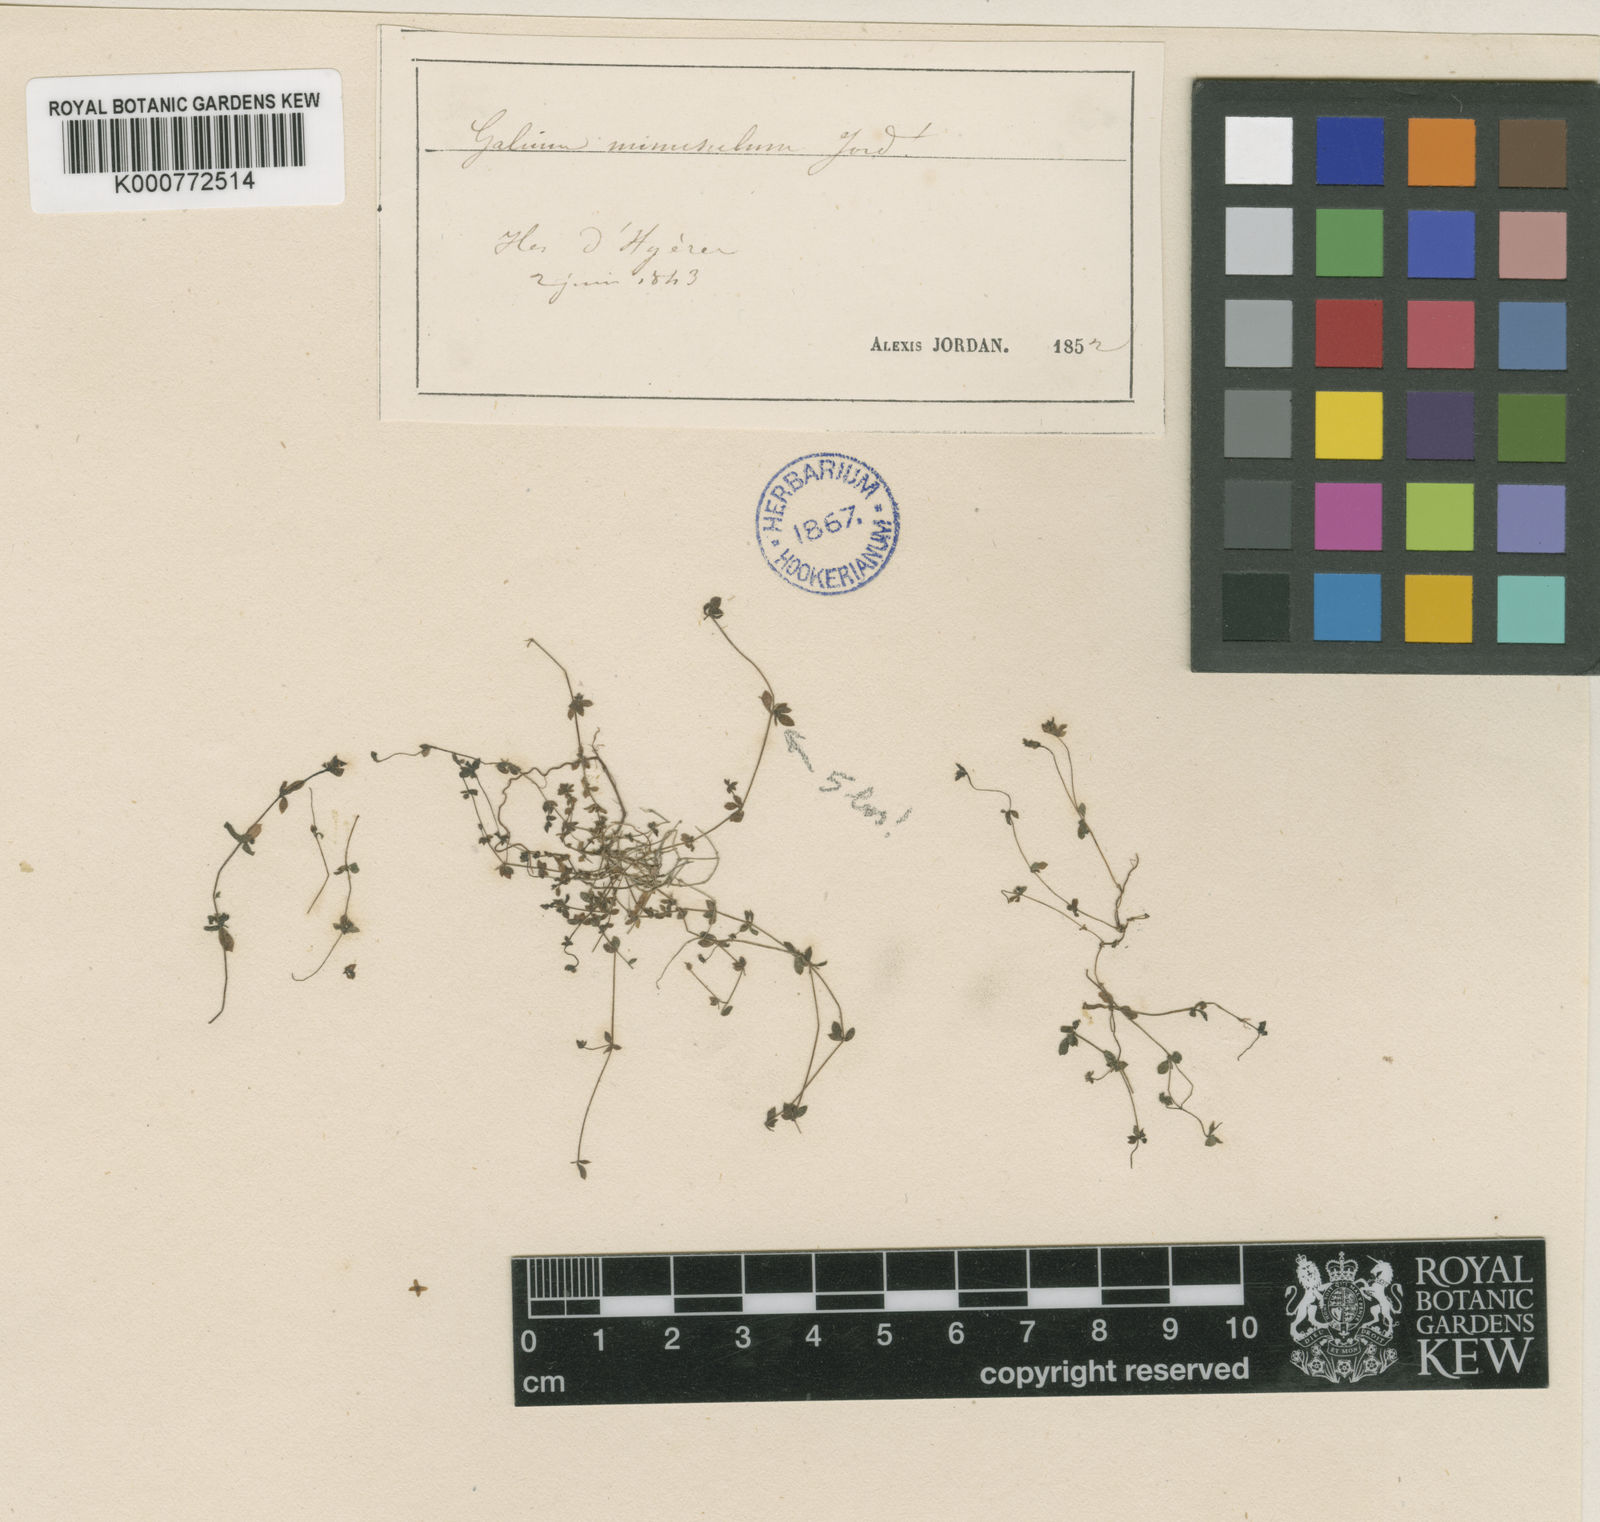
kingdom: Plantae
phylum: Tracheophyta
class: Magnoliopsida
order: Gentianales
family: Rubiaceae
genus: Galium
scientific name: Galium minutulum
